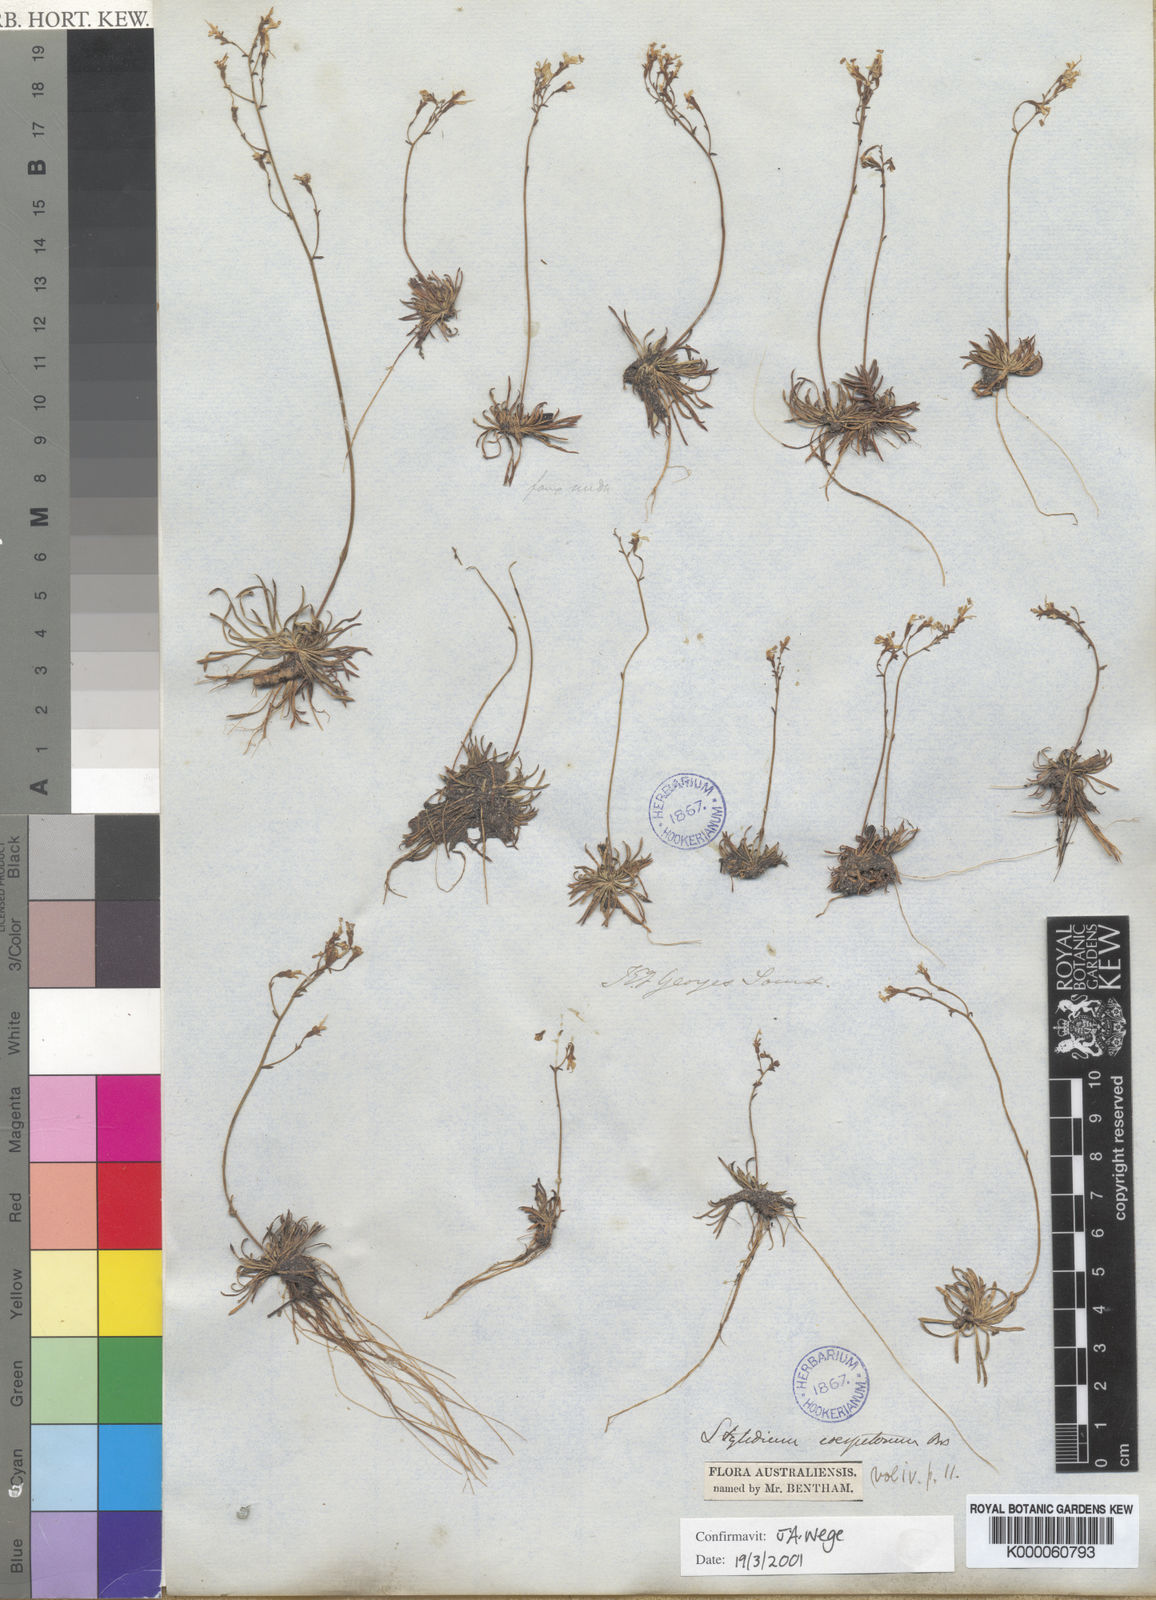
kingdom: Plantae
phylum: Tracheophyta
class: Magnoliopsida
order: Asterales
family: Stylidiaceae
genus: Stylidium
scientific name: Stylidium caespitosum
